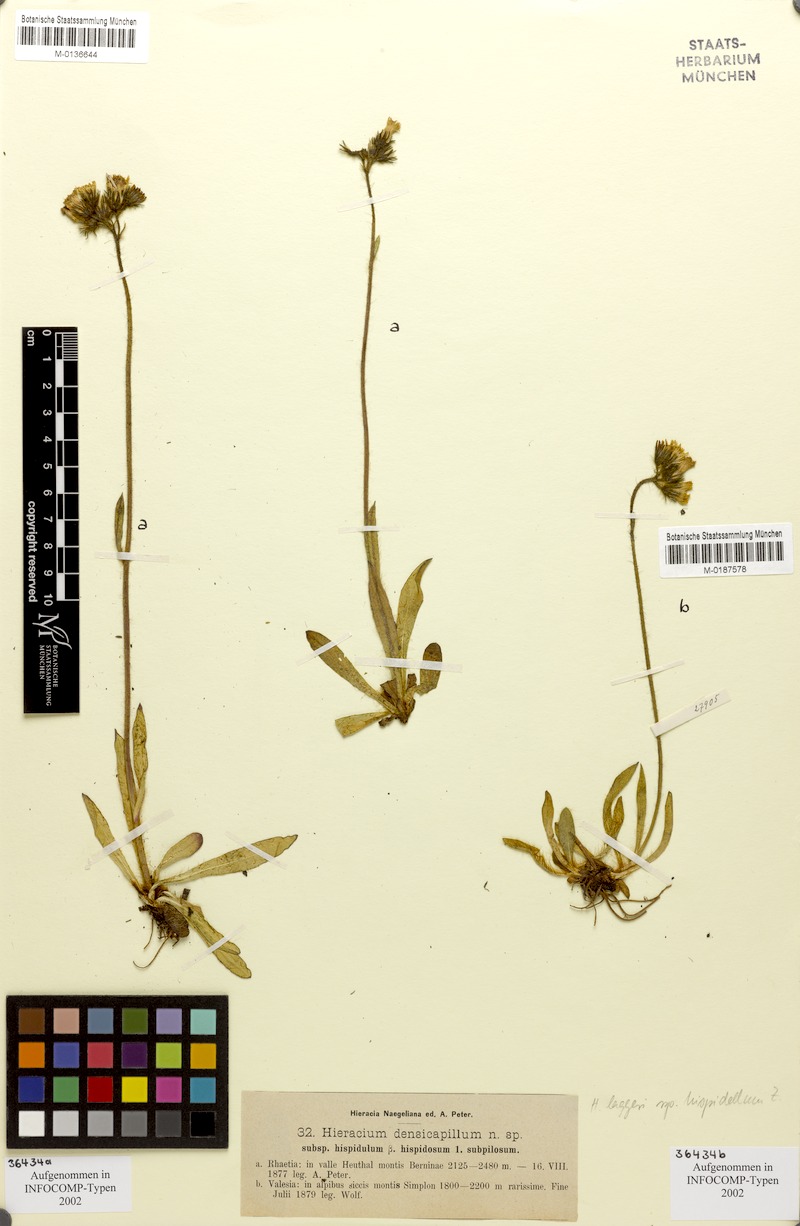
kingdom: Plantae
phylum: Tracheophyta
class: Magnoliopsida
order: Asterales
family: Asteraceae
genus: Hieracium
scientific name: Hieracium jordanii
